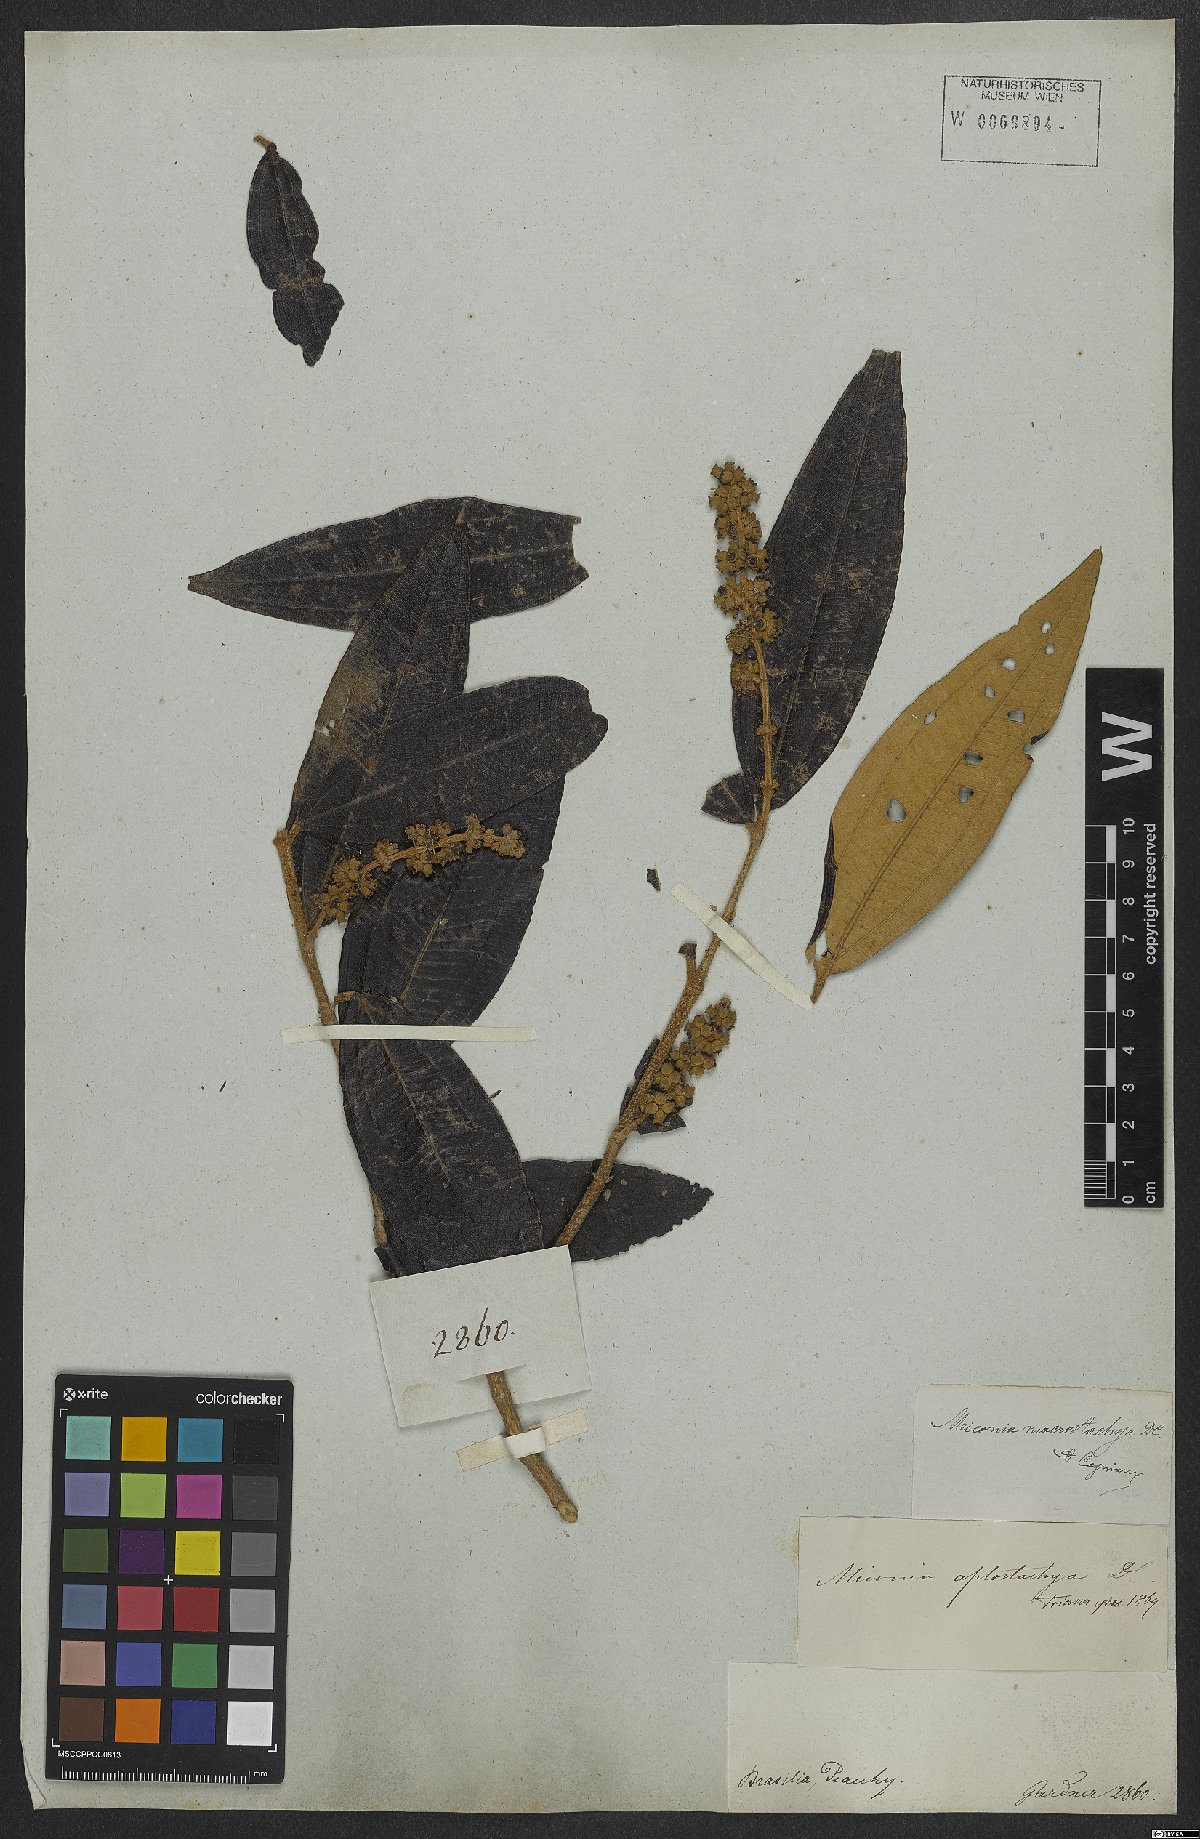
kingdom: Plantae
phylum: Tracheophyta
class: Magnoliopsida
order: Myrtales
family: Melastomataceae
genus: Miconia
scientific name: Miconia aplostachya
